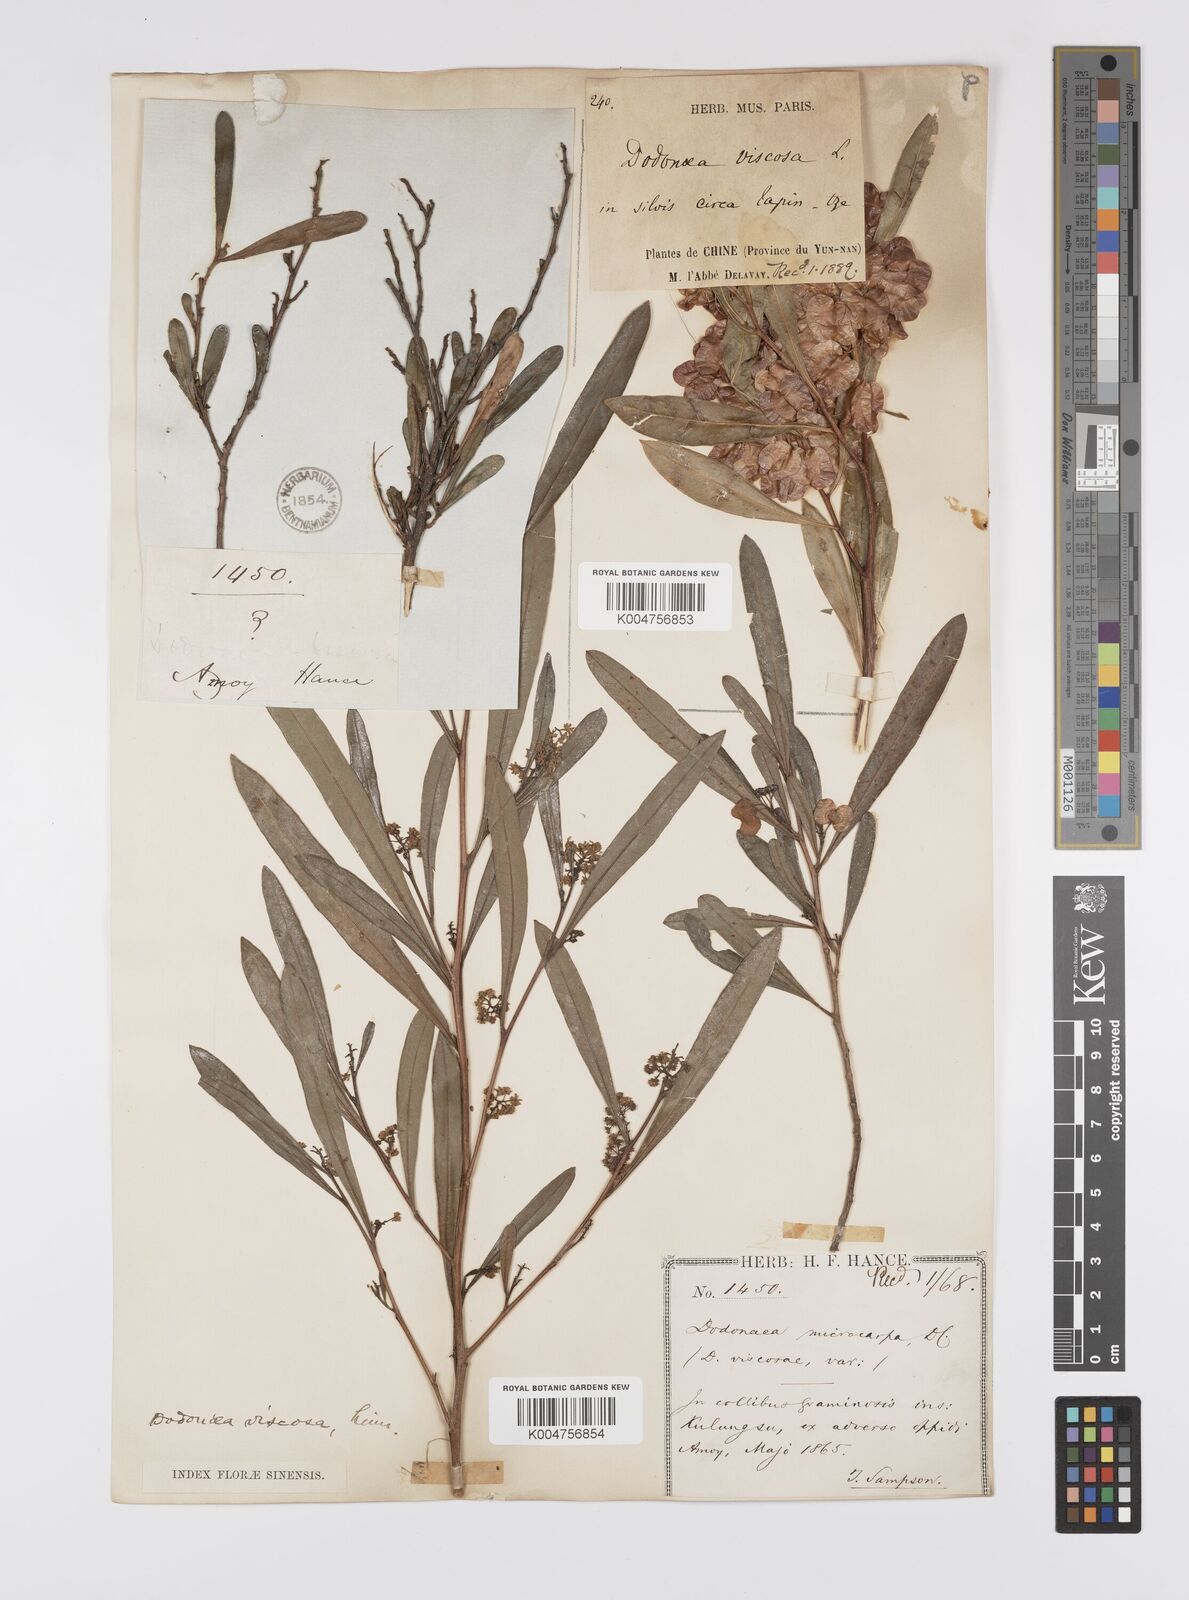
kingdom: Plantae
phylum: Tracheophyta
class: Magnoliopsida
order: Sapindales
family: Sapindaceae
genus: Dodonaea
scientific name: Dodonaea viscosa
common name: Hopbush
